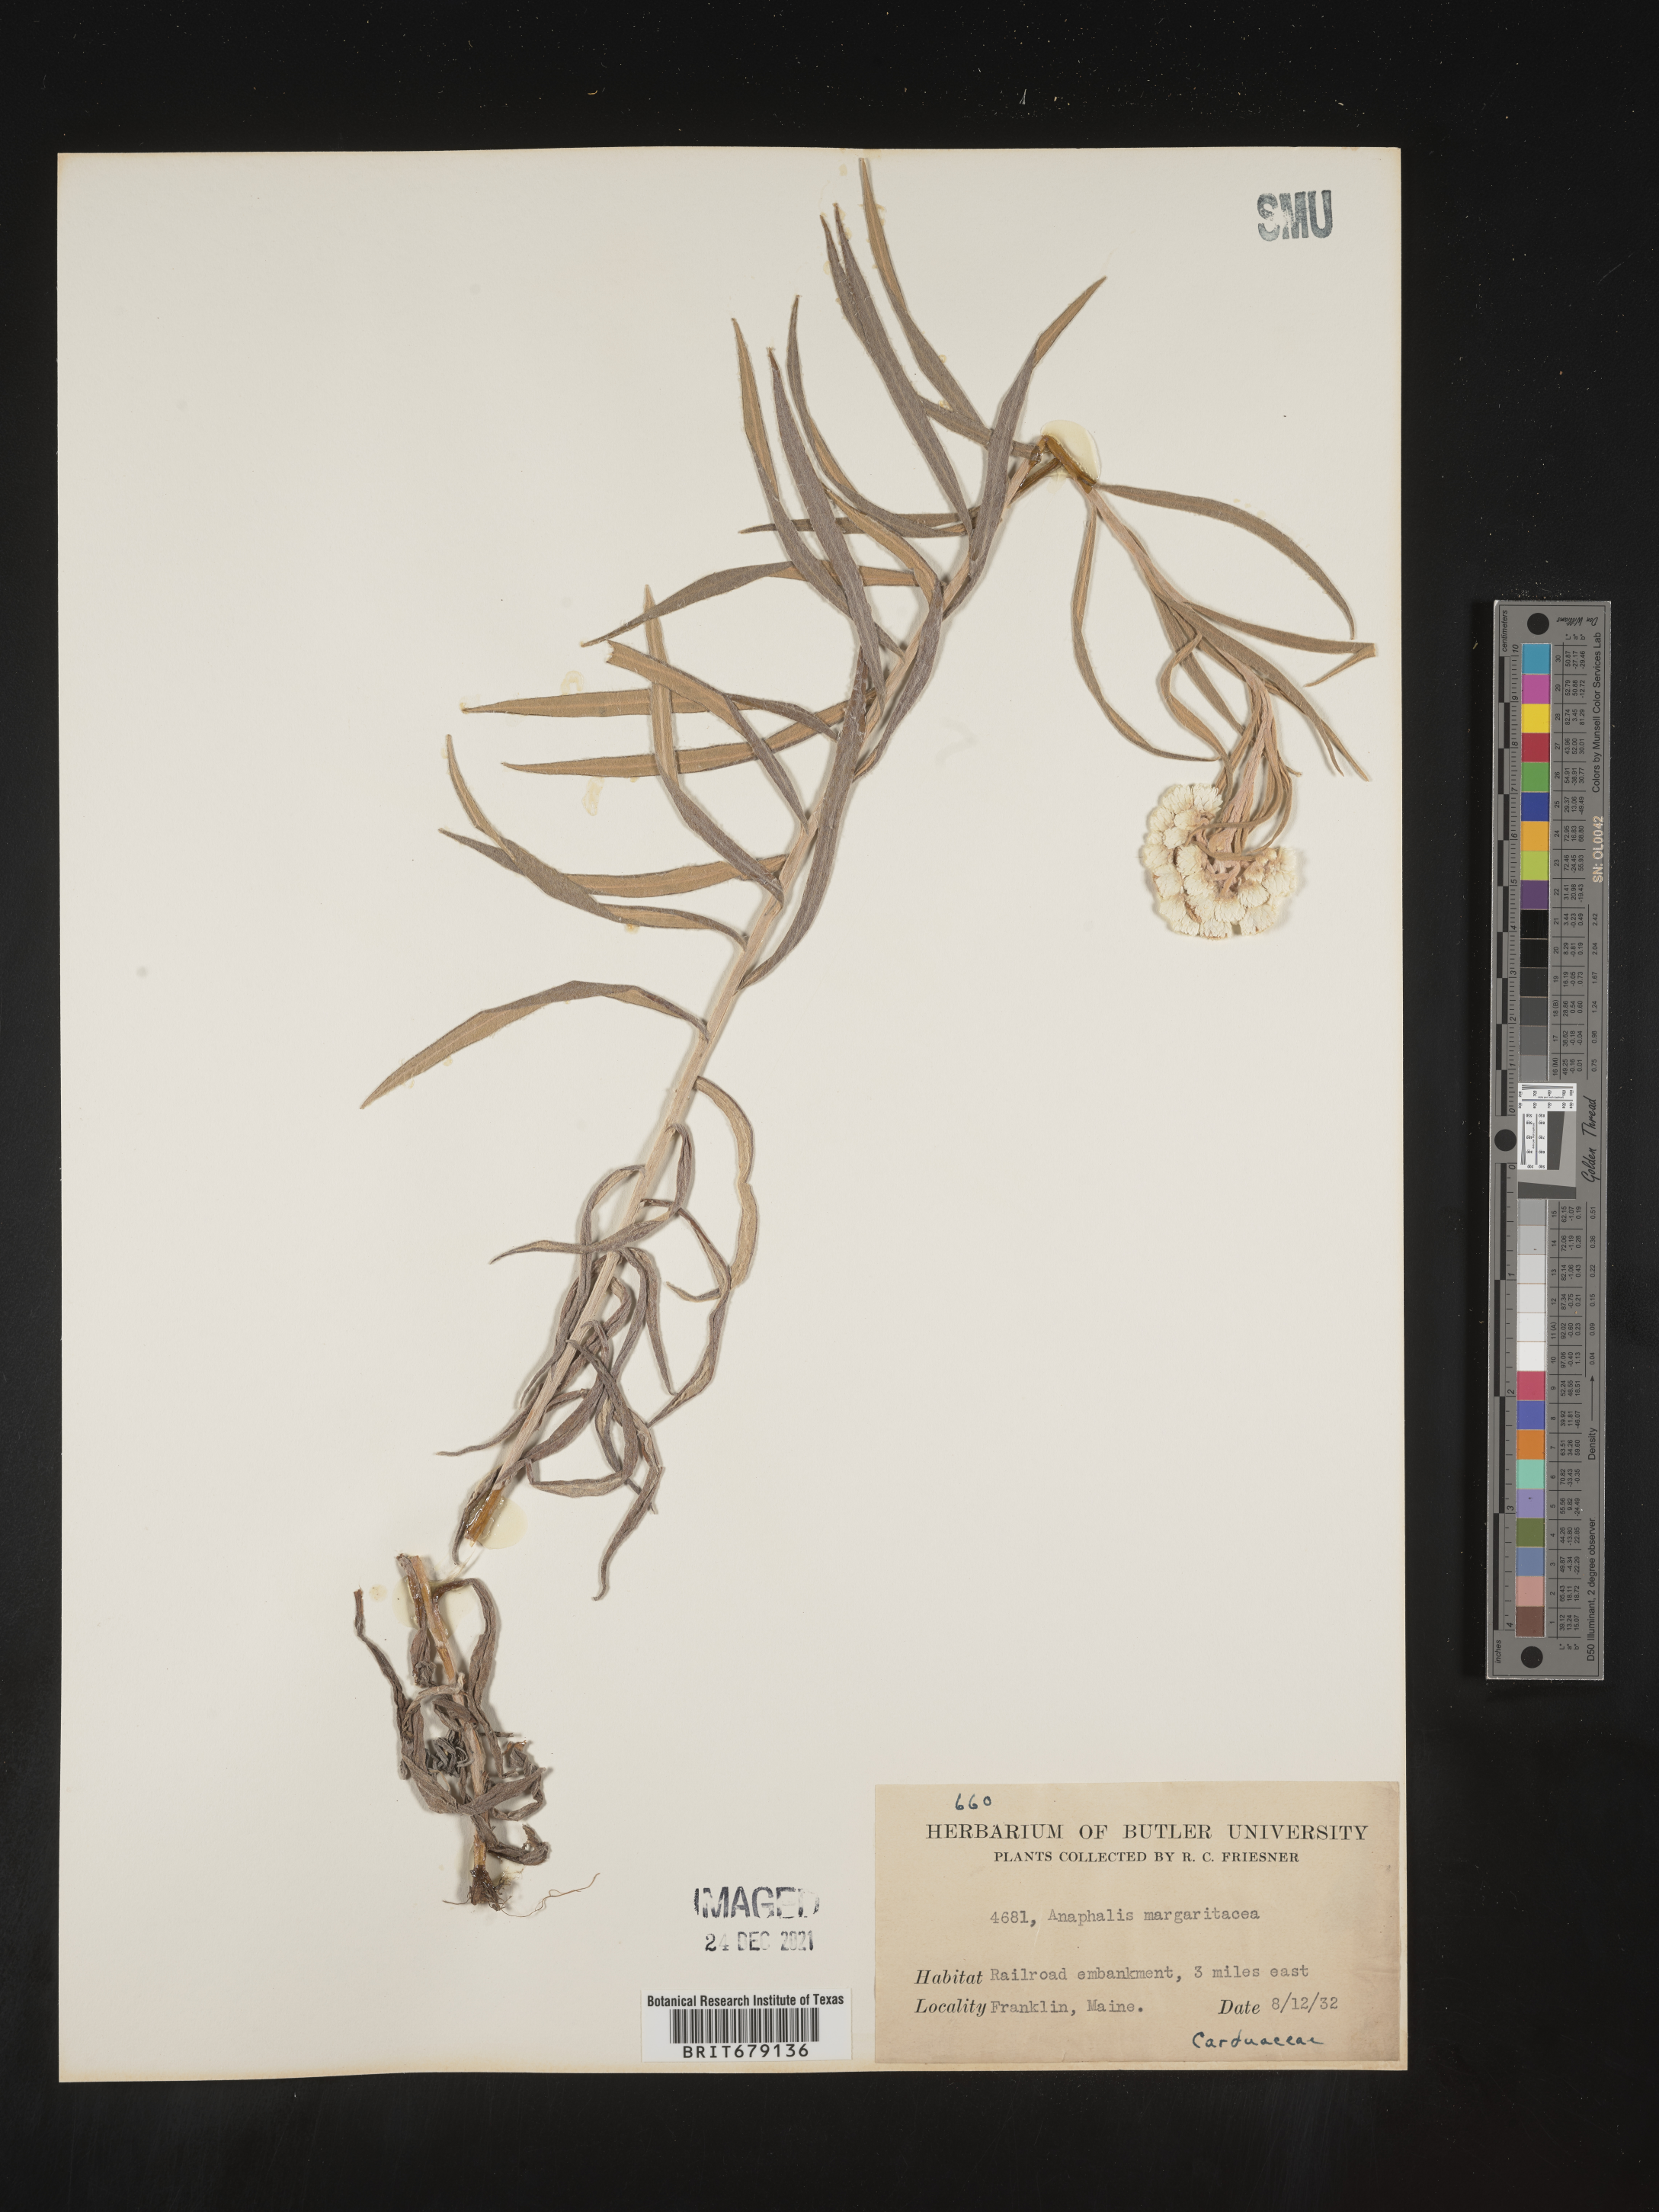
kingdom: Plantae
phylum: Tracheophyta
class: Magnoliopsida
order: Asterales
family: Asteraceae
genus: Anaphalis
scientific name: Anaphalis margaritacea
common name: Pearly everlasting
